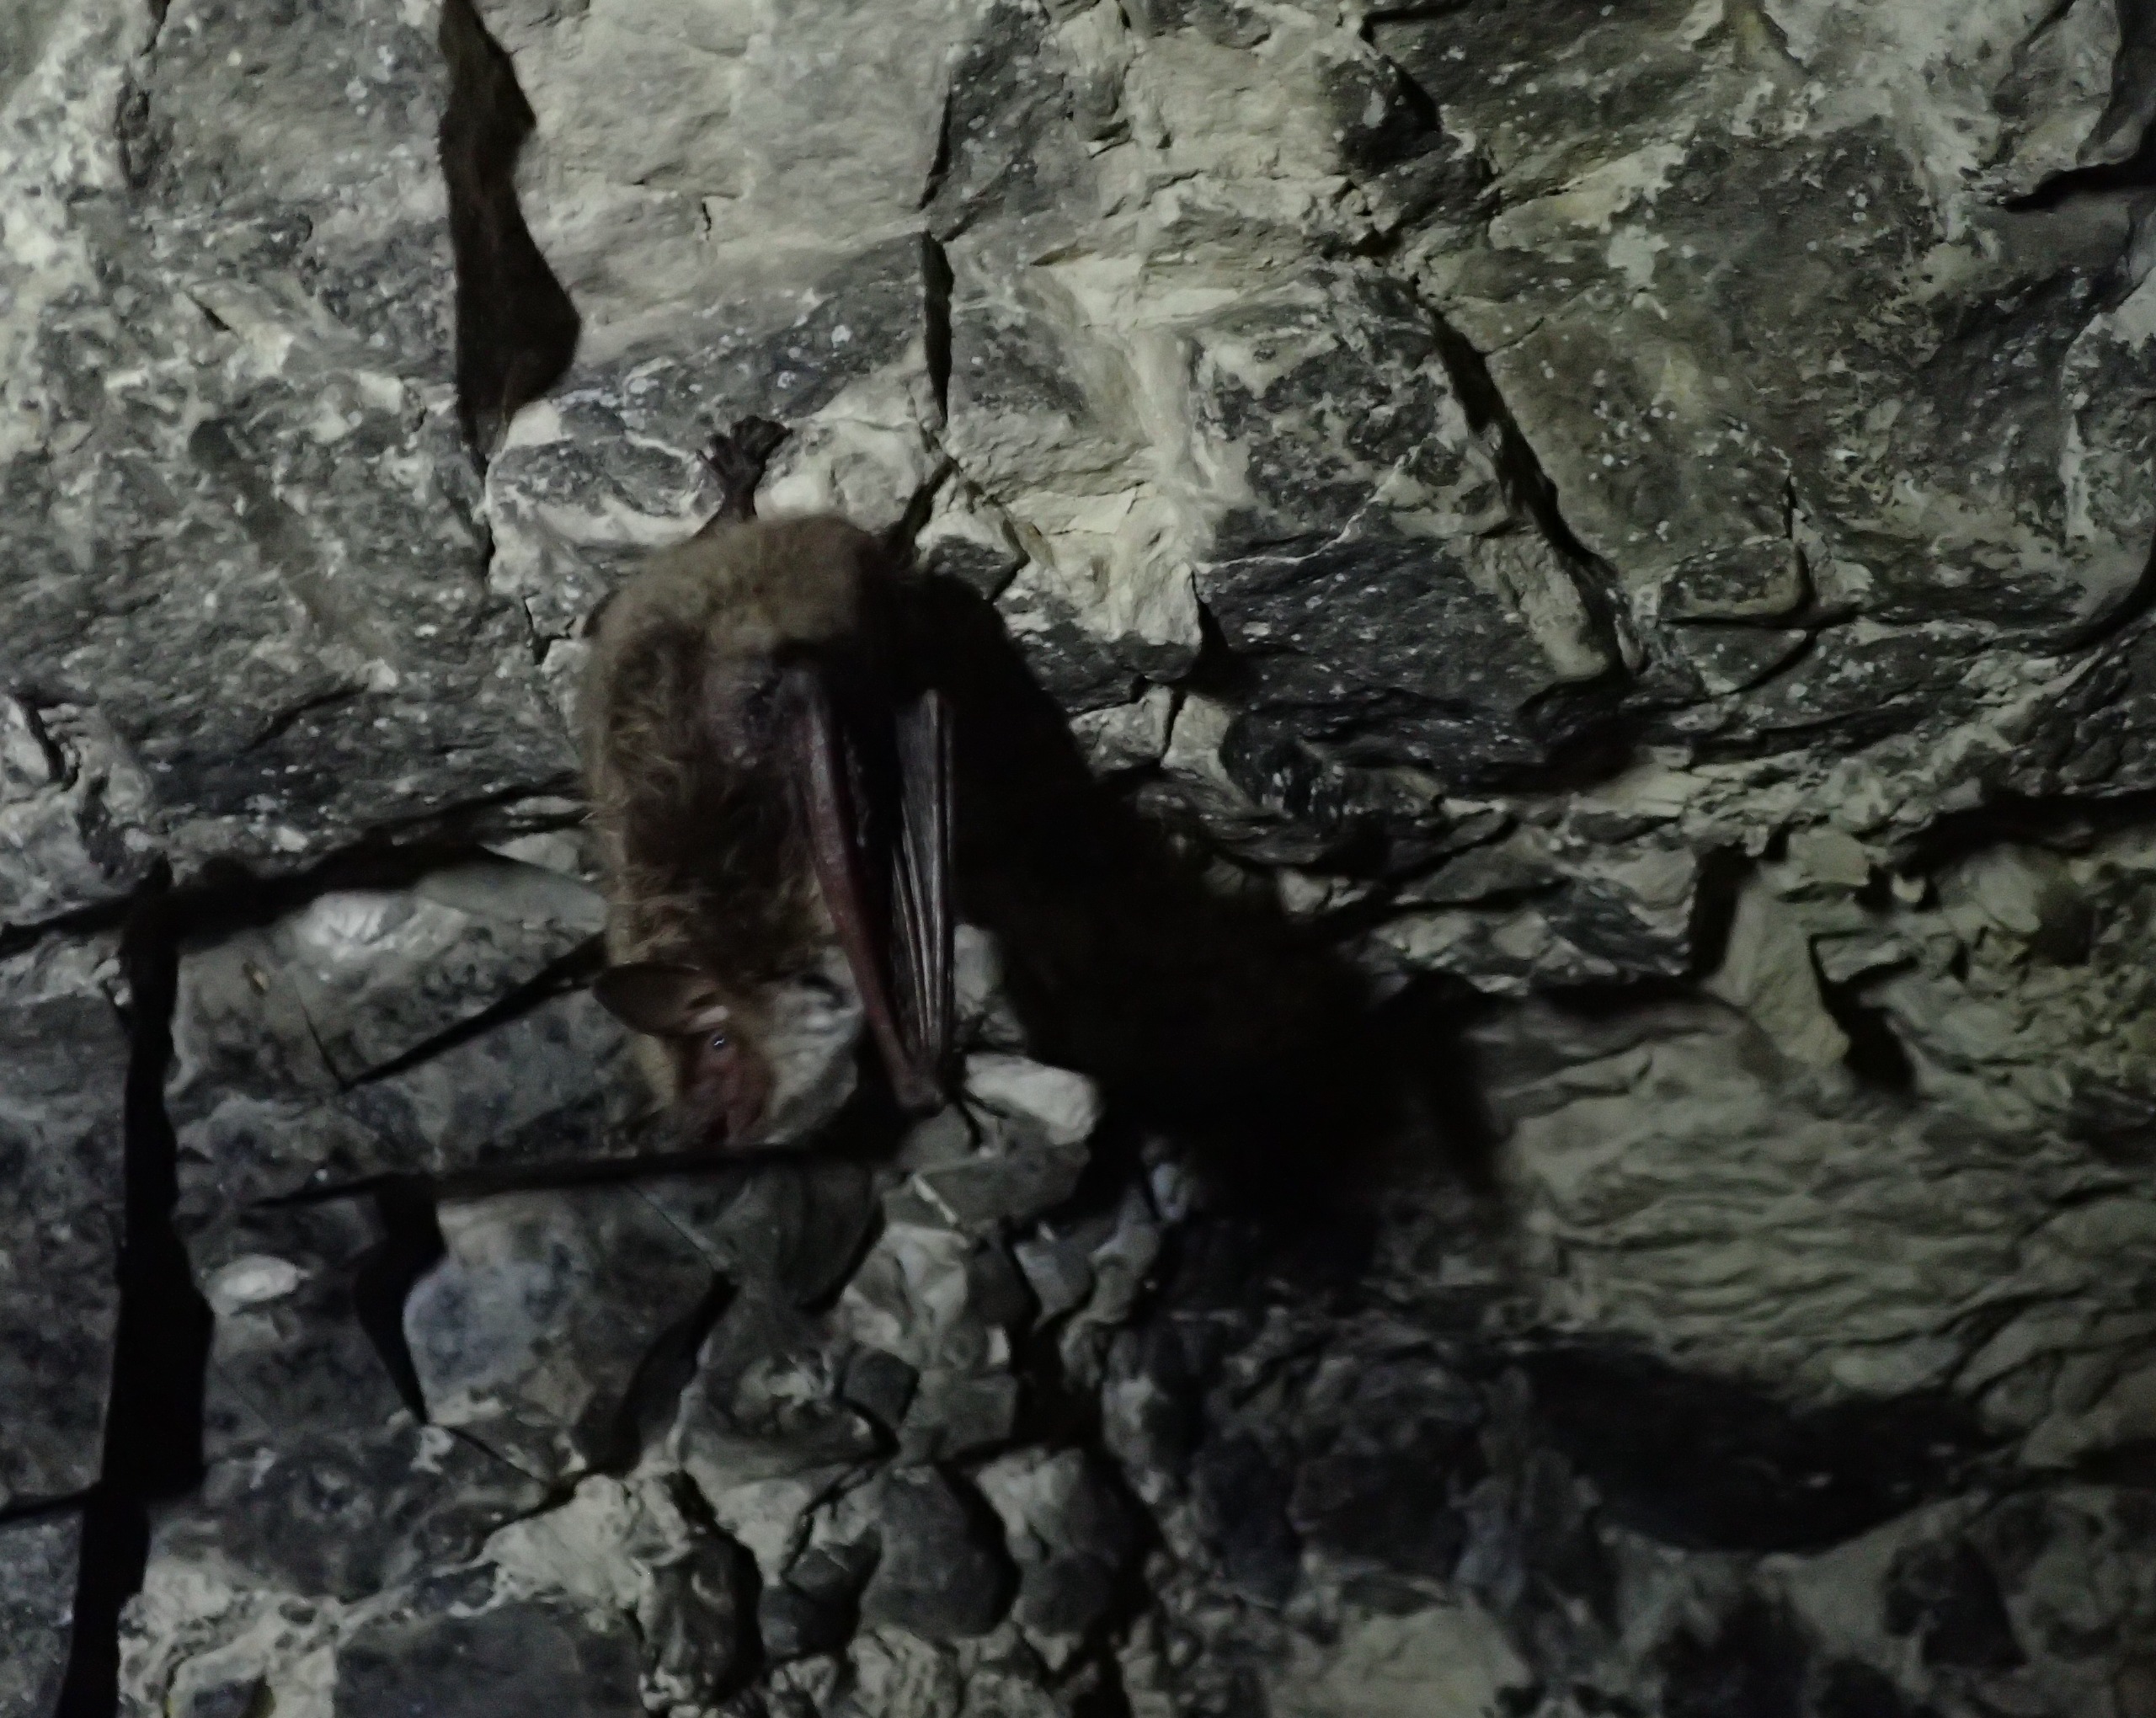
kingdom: Animalia
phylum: Chordata
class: Mammalia
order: Chiroptera
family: Vespertilionidae
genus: Myotis
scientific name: Myotis dasycneme
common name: Damflagermus
